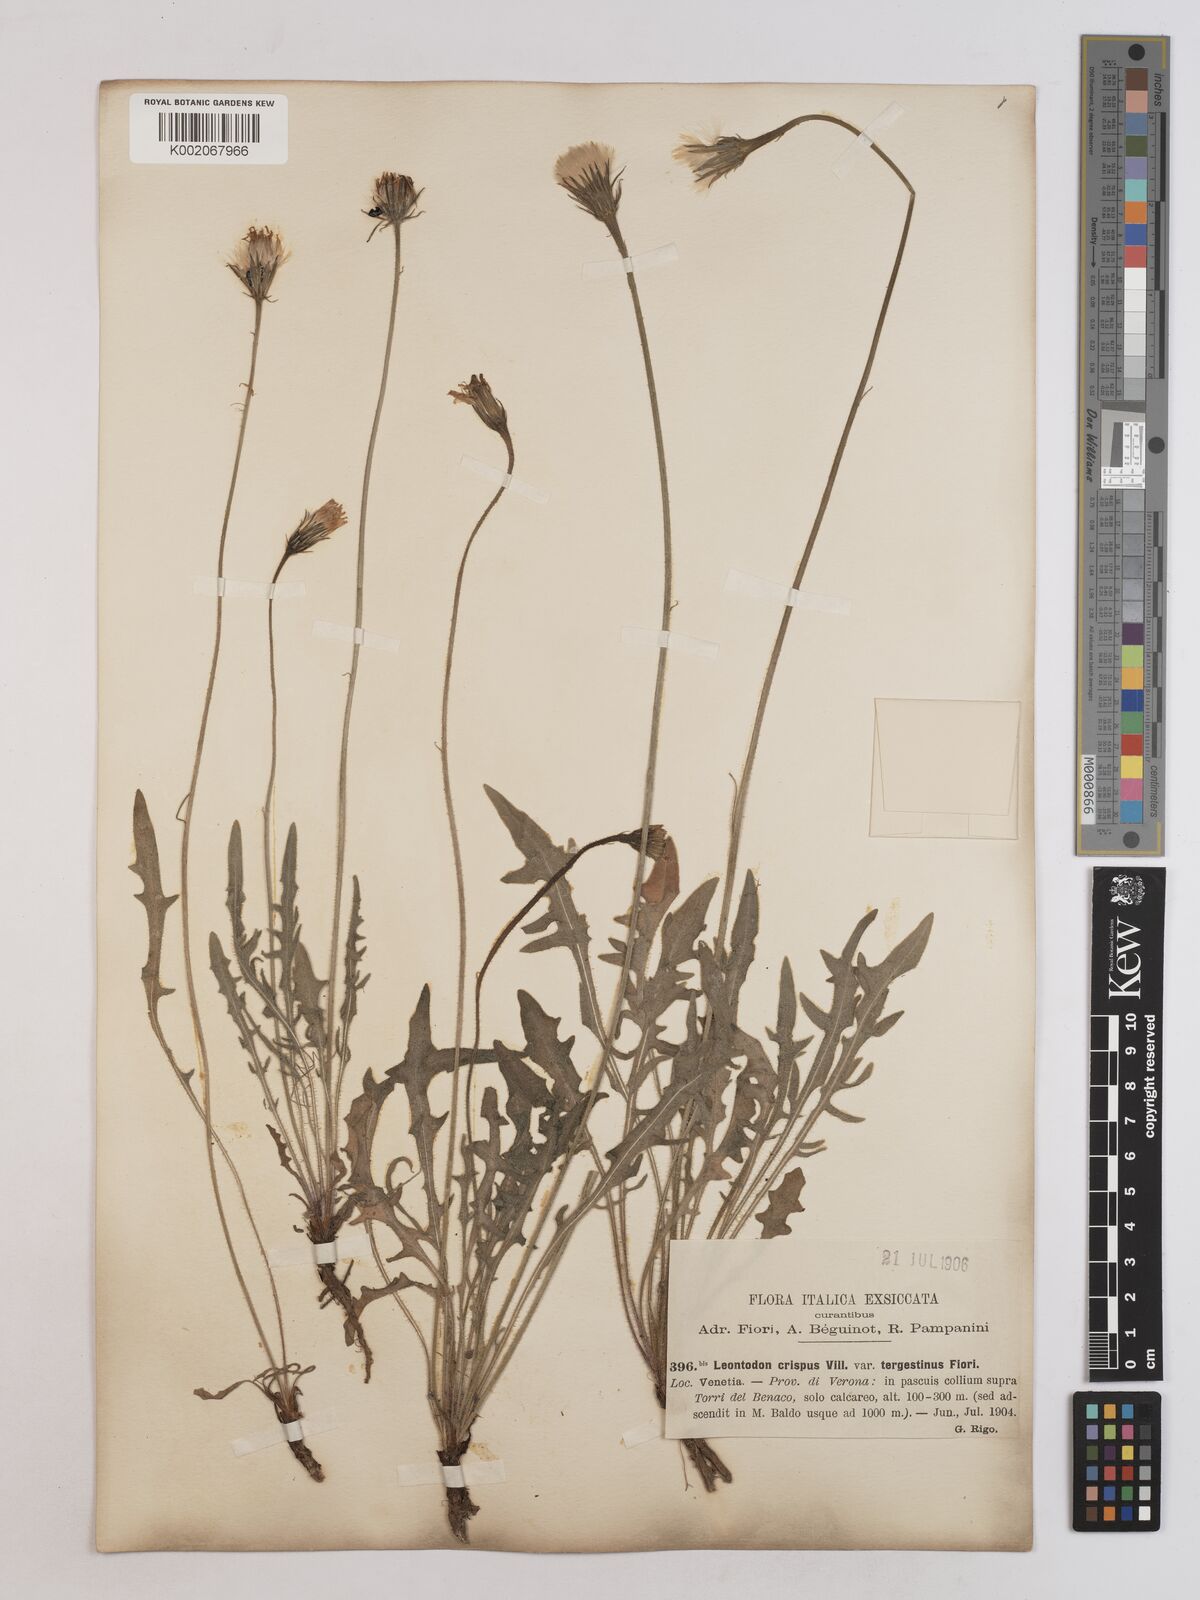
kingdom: Plantae
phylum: Tracheophyta
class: Magnoliopsida
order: Asterales
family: Asteraceae
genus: Leontodon
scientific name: Leontodon crispus
